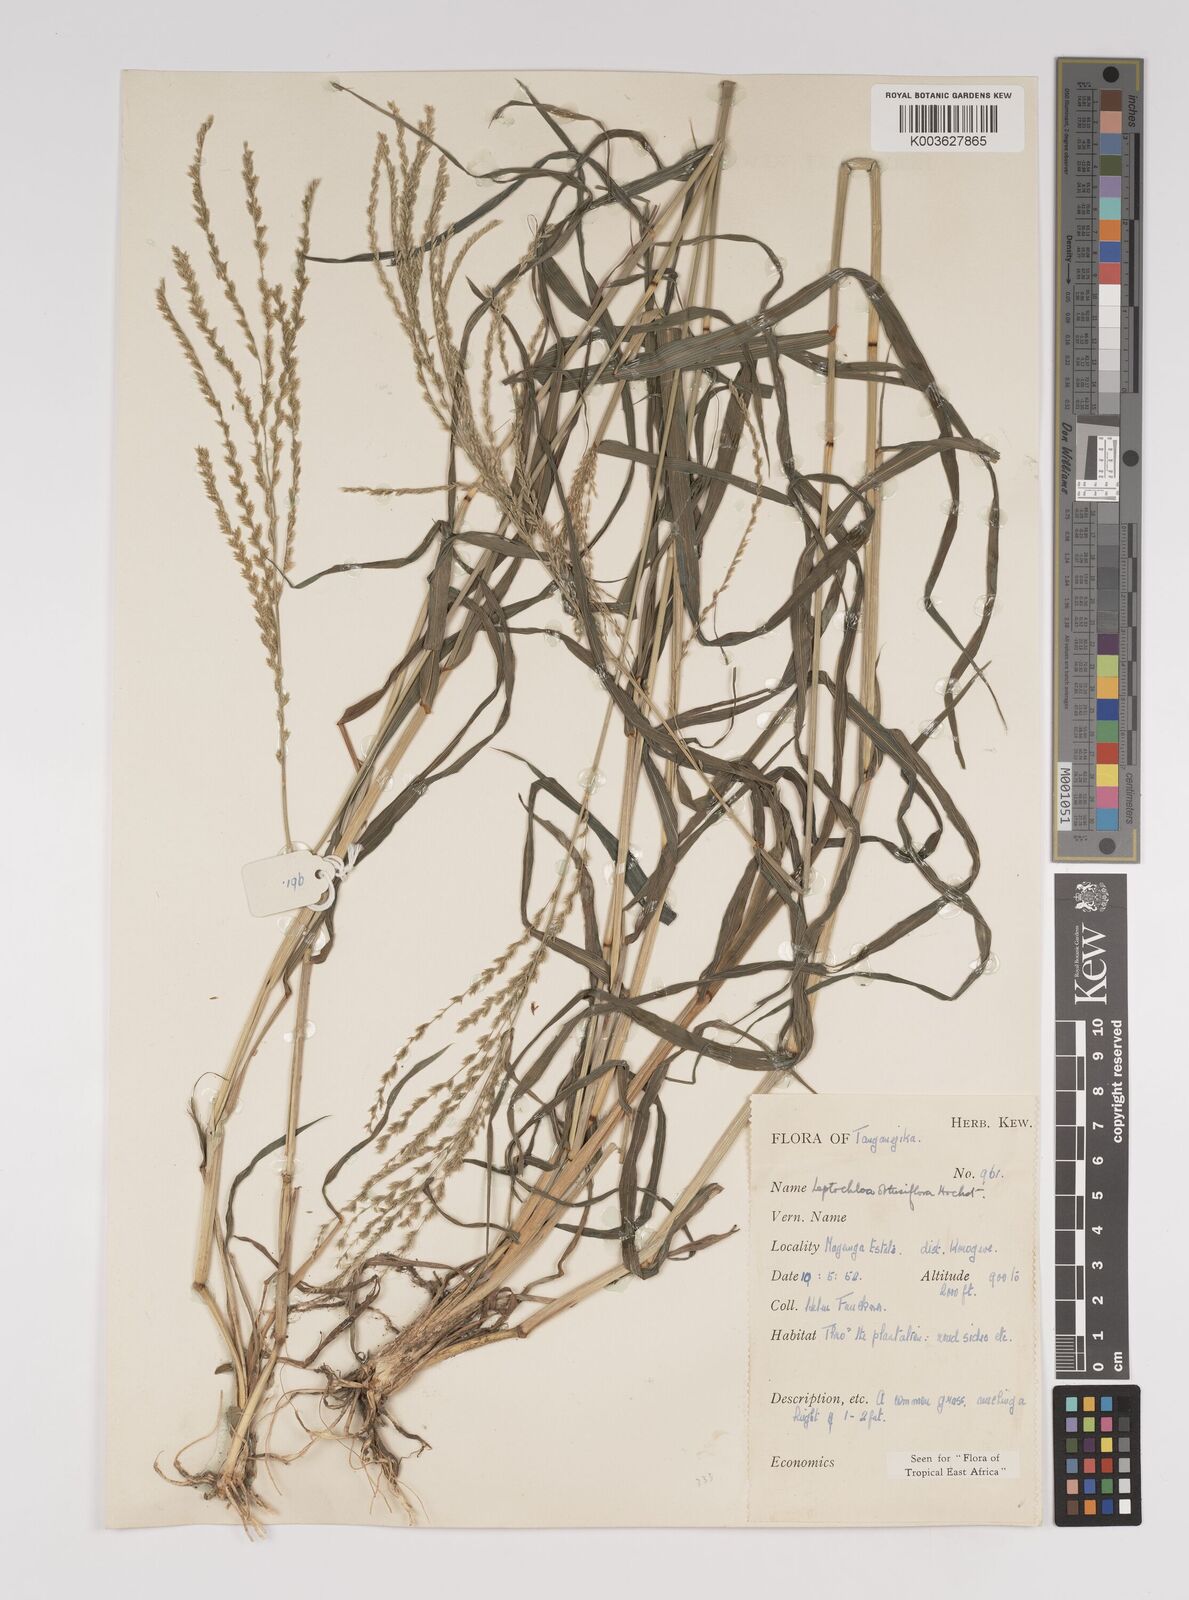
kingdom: Plantae
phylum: Tracheophyta
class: Liliopsida
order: Poales
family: Poaceae
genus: Disakisperma
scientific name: Disakisperma obtusiflorum
